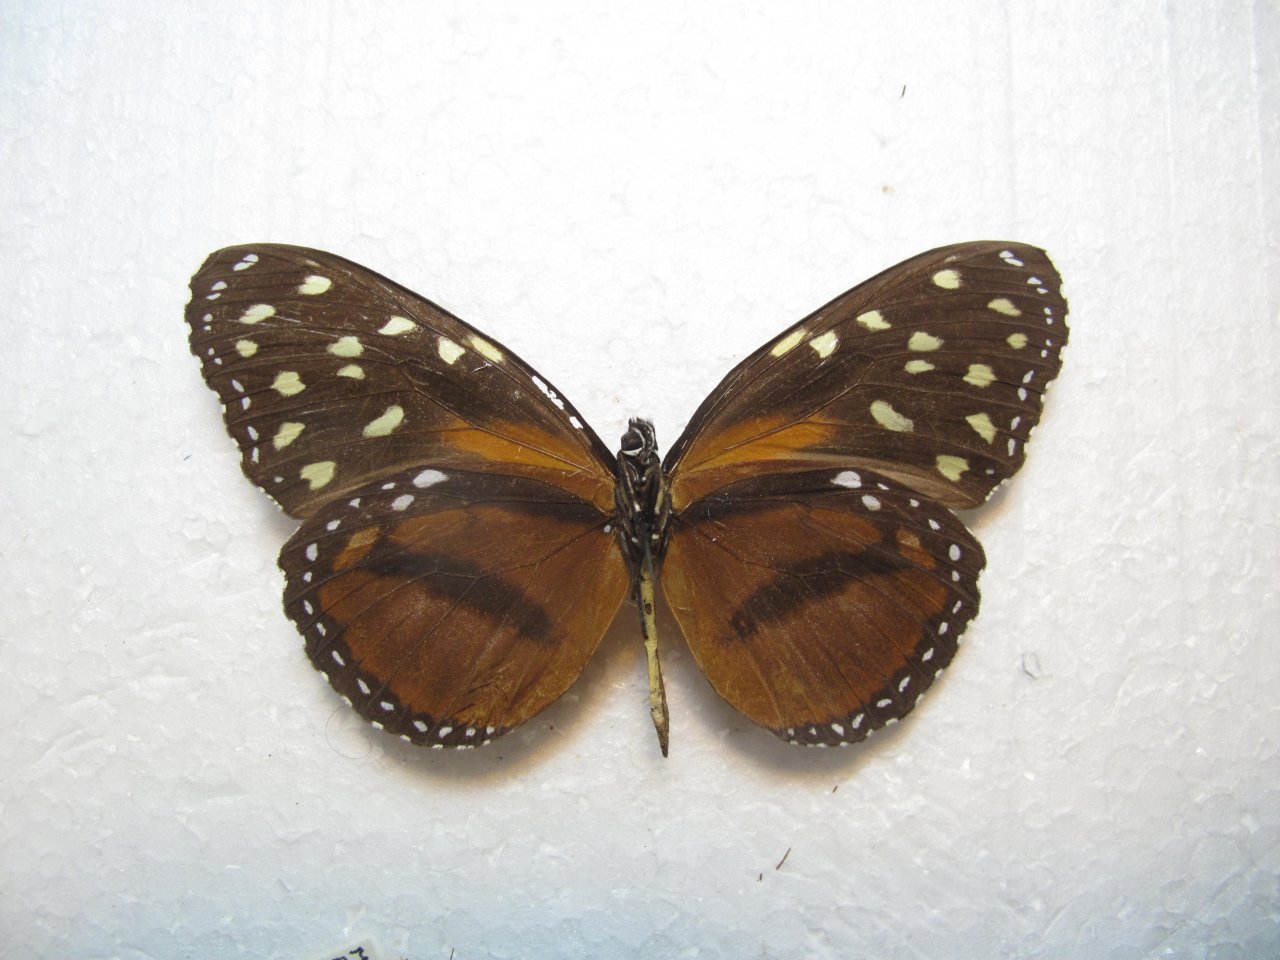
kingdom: Animalia
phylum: Arthropoda
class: Insecta
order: Lepidoptera
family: Nymphalidae
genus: Tithorea
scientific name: Tithorea tarricina
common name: Cream-spotted Tigerwing
